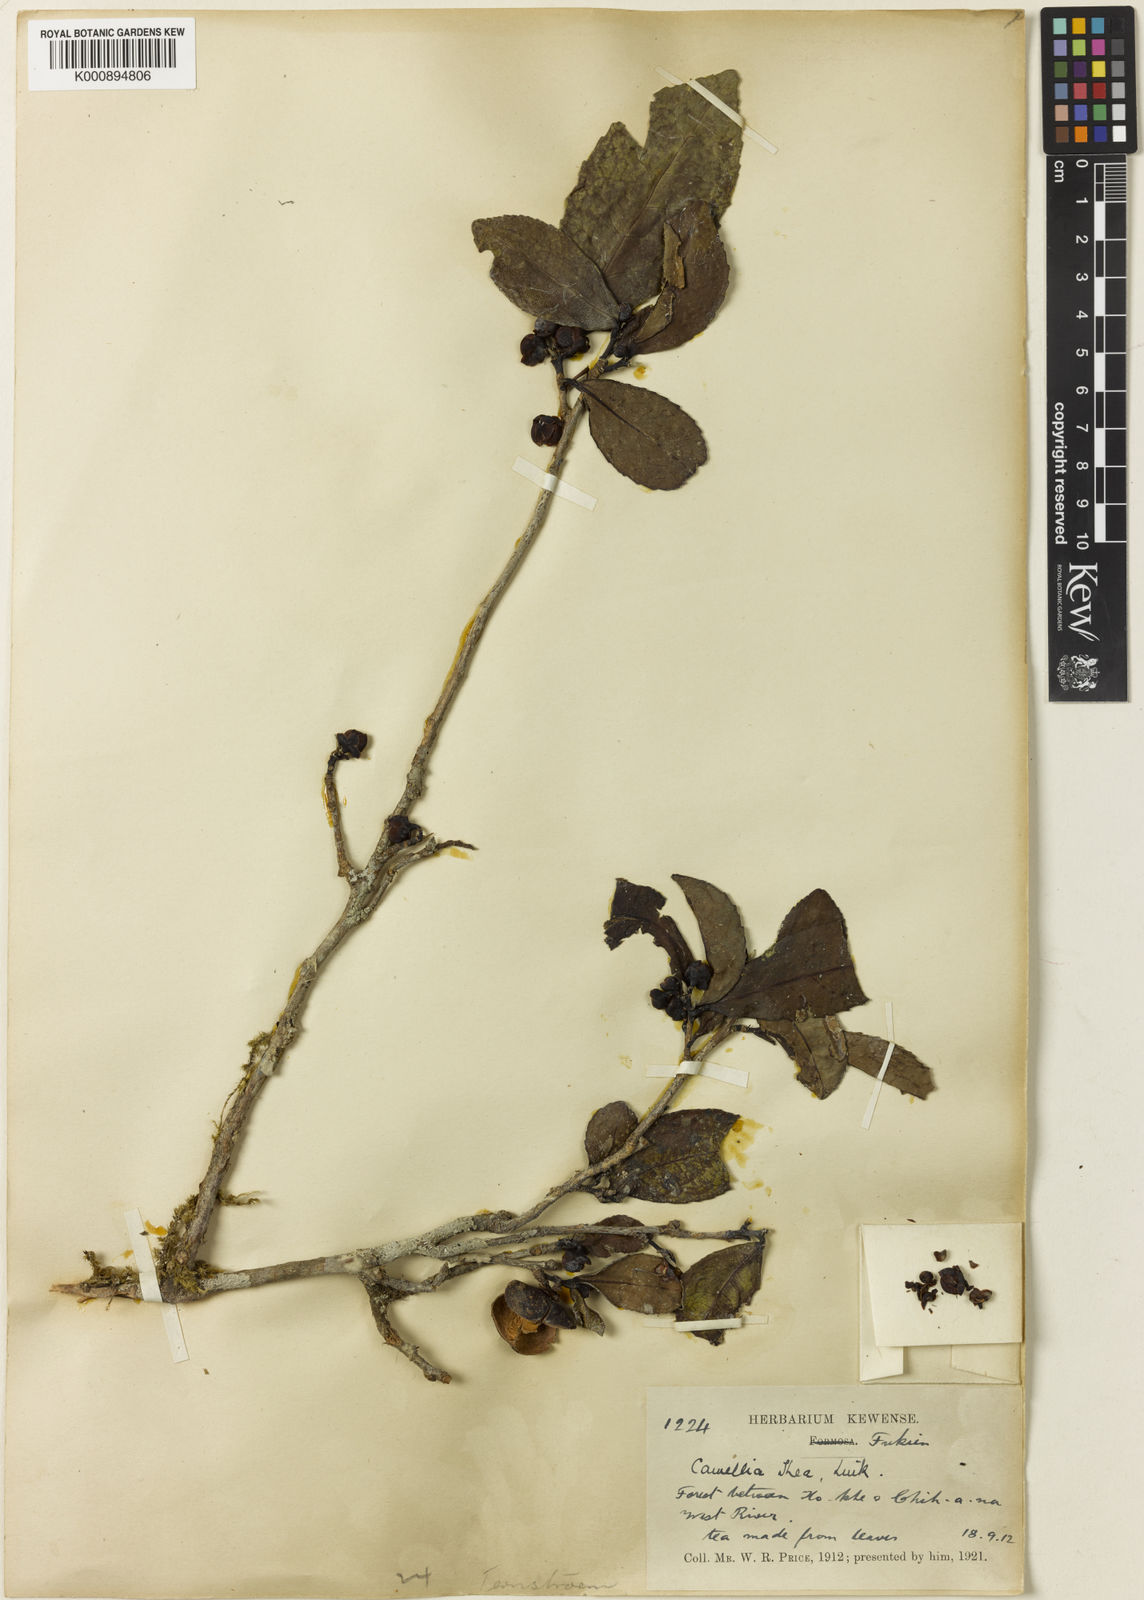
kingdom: Plantae
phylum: Tracheophyta
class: Magnoliopsida
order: Ericales
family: Theaceae
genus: Camellia
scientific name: Camellia sinensis
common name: Tea
